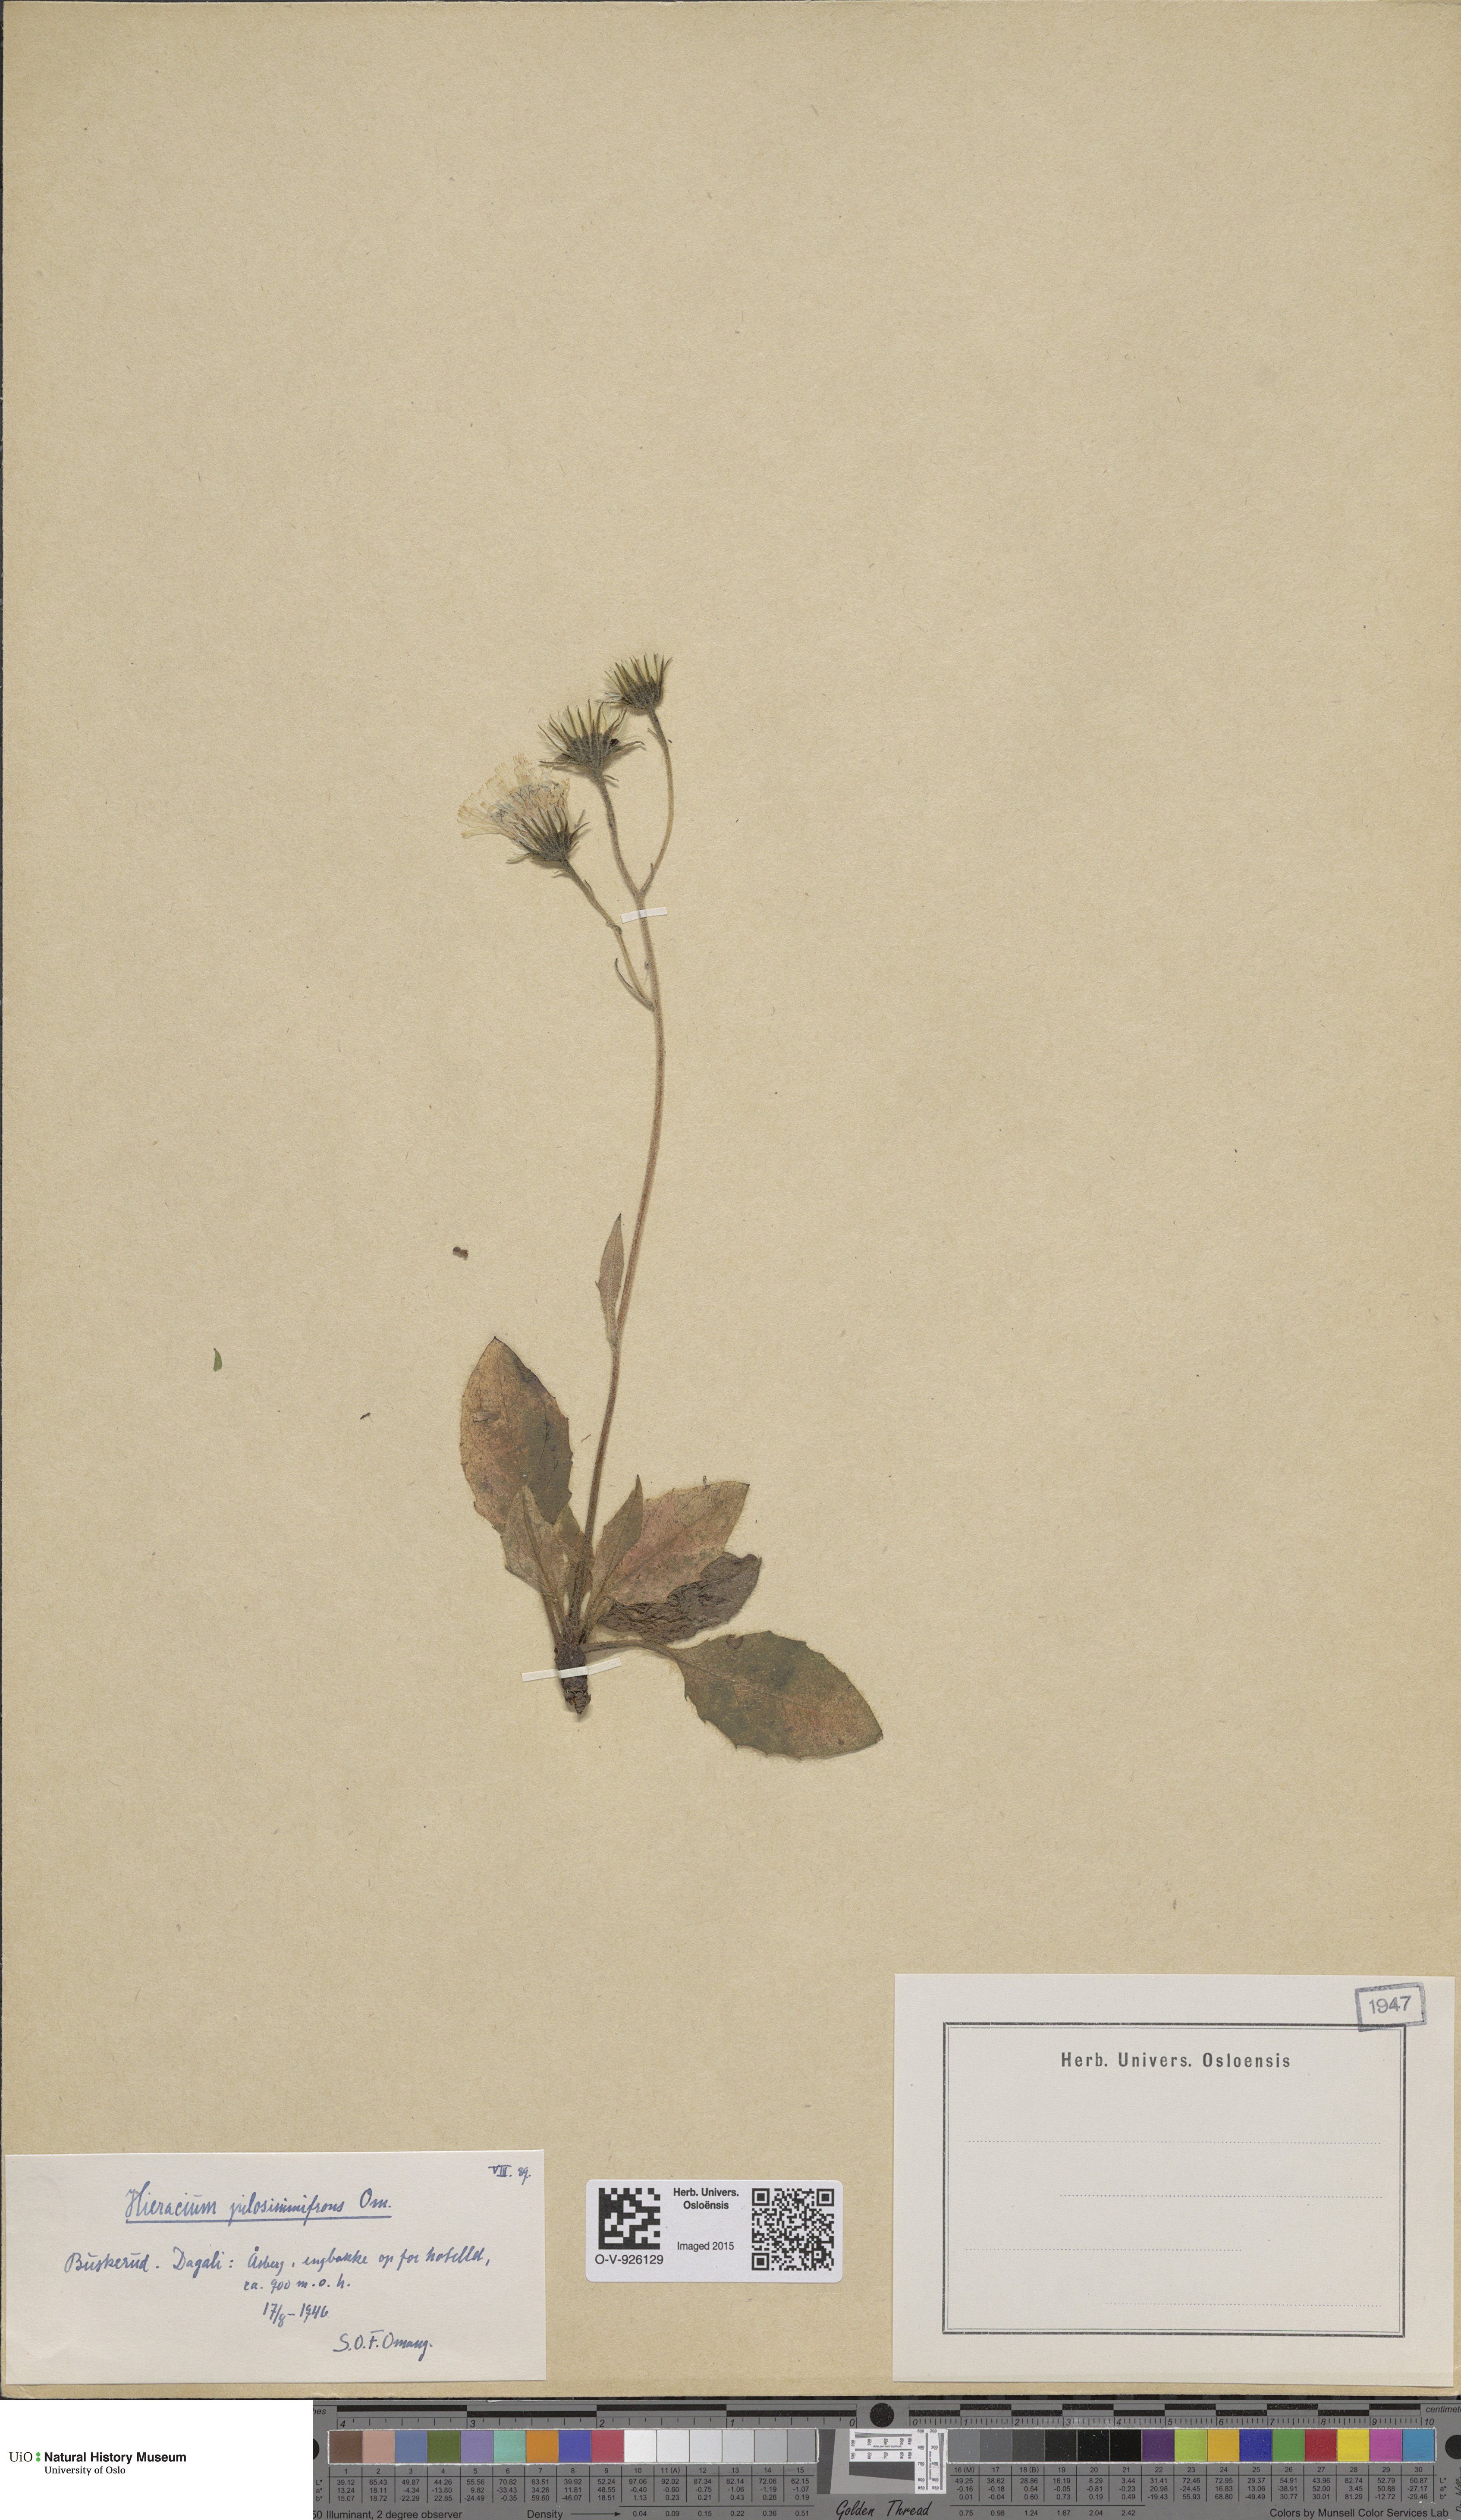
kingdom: Plantae
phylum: Tracheophyta
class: Magnoliopsida
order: Asterales
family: Asteraceae
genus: Hieracium
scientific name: Hieracium
